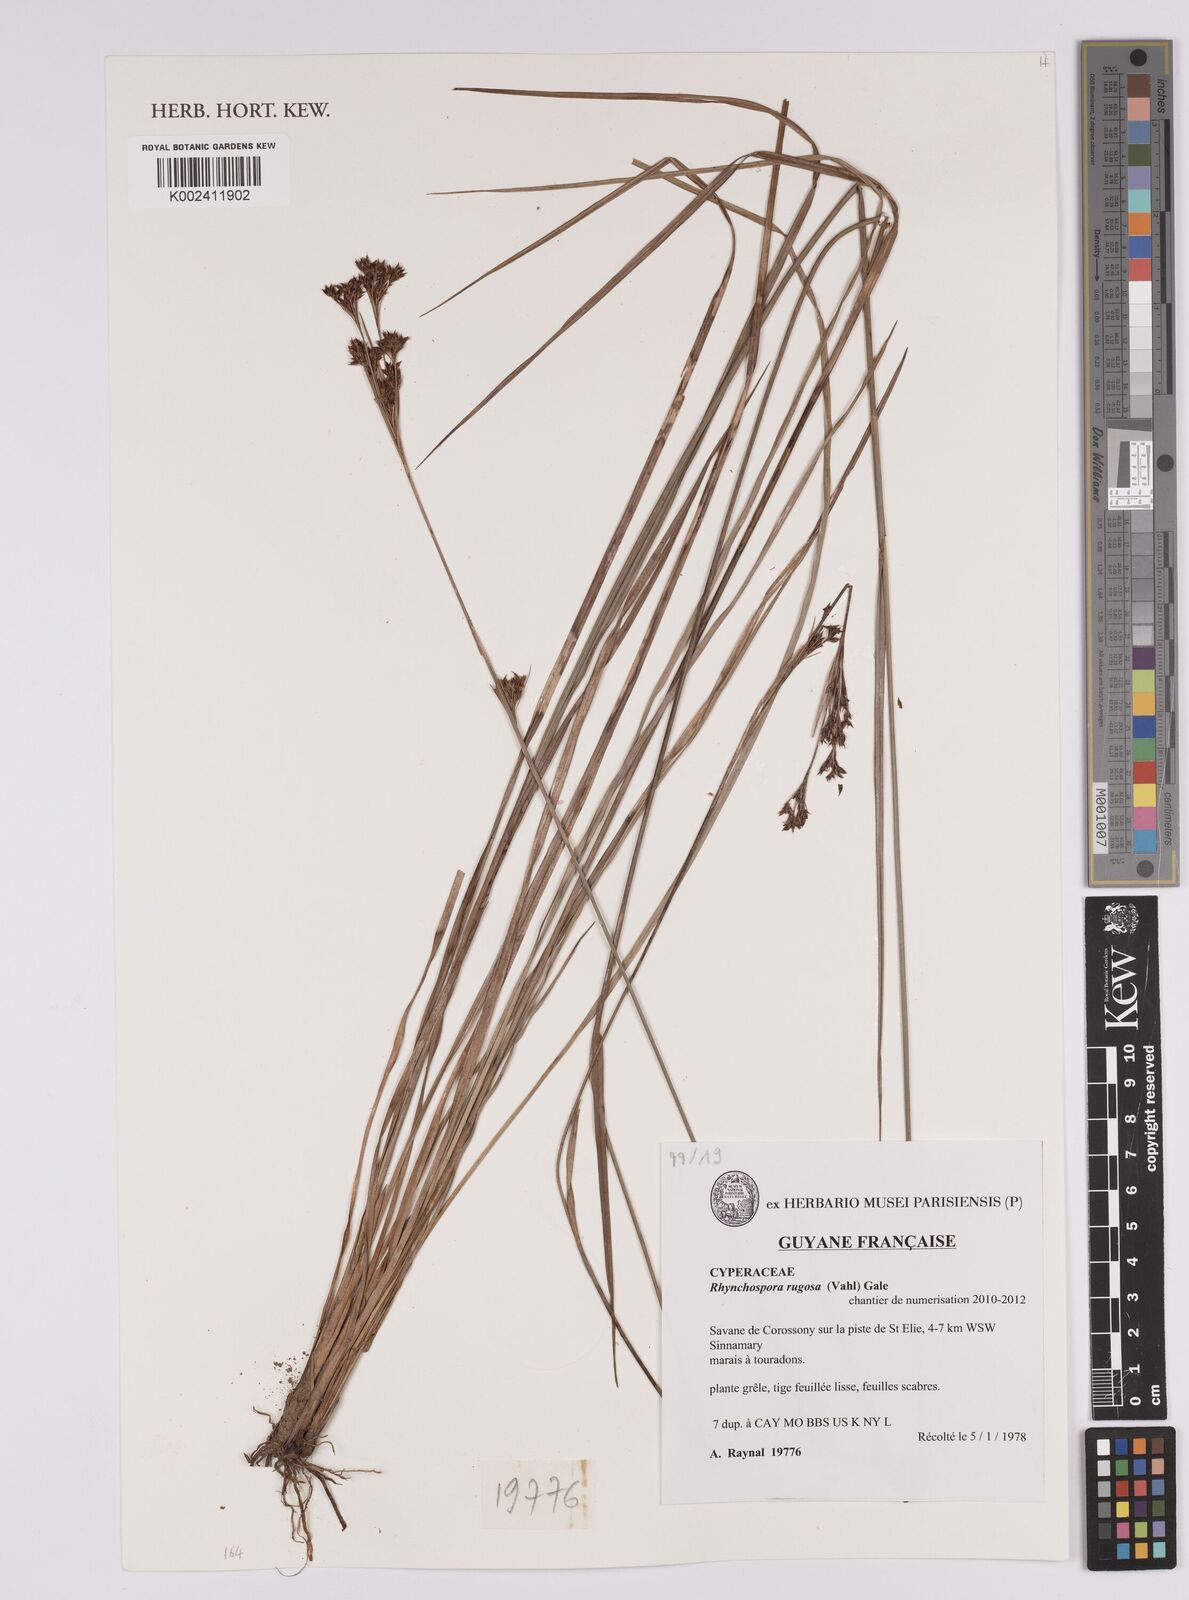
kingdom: Plantae
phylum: Tracheophyta
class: Liliopsida
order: Poales
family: Cyperaceae
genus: Rhynchospora
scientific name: Rhynchospora rugosa
